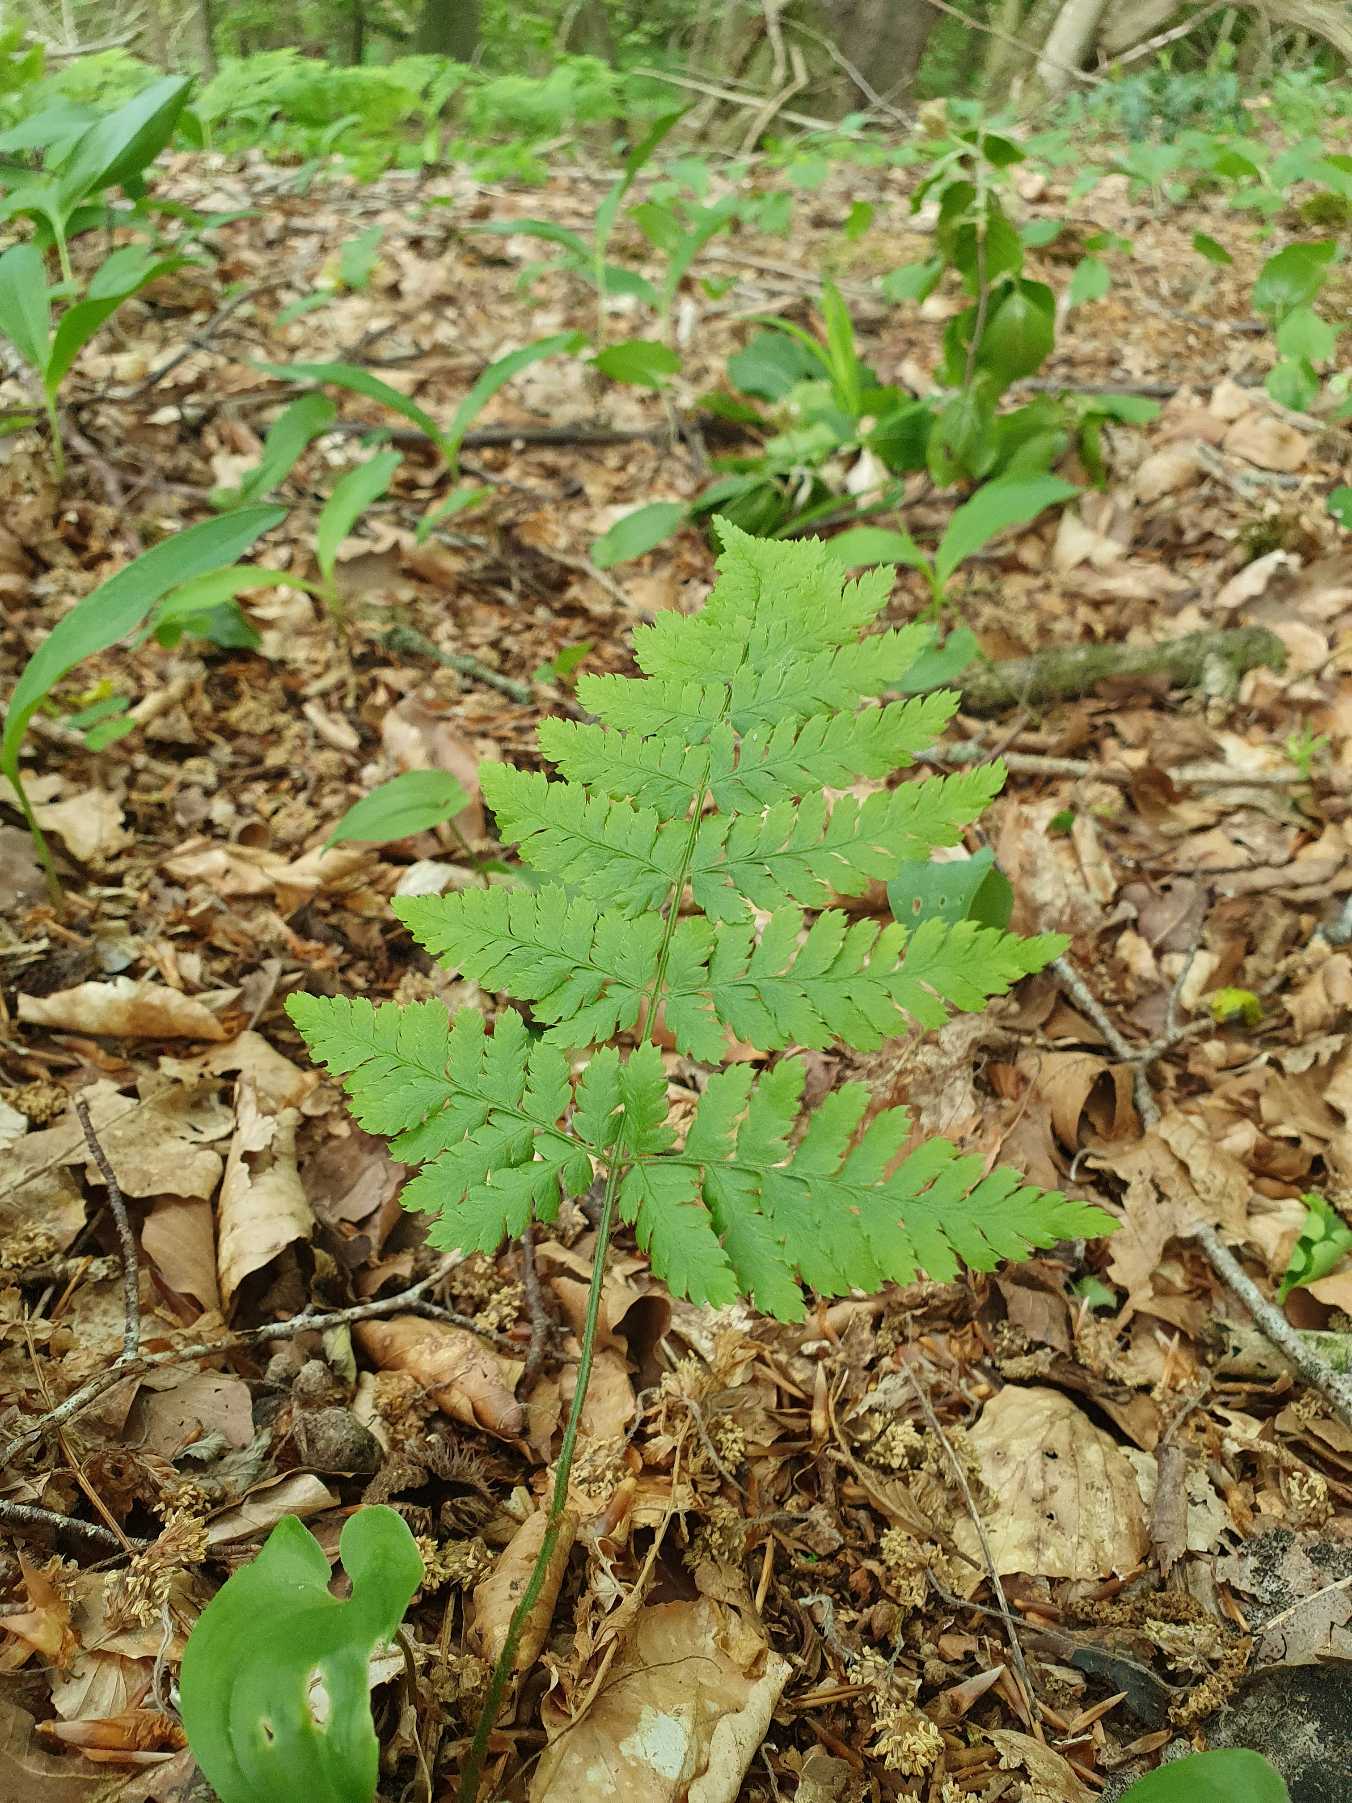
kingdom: Plantae
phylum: Tracheophyta
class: Polypodiopsida
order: Polypodiales
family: Dryopteridaceae
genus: Dryopteris
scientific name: Dryopteris carthusiana
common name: Smalbladet mangeløv
